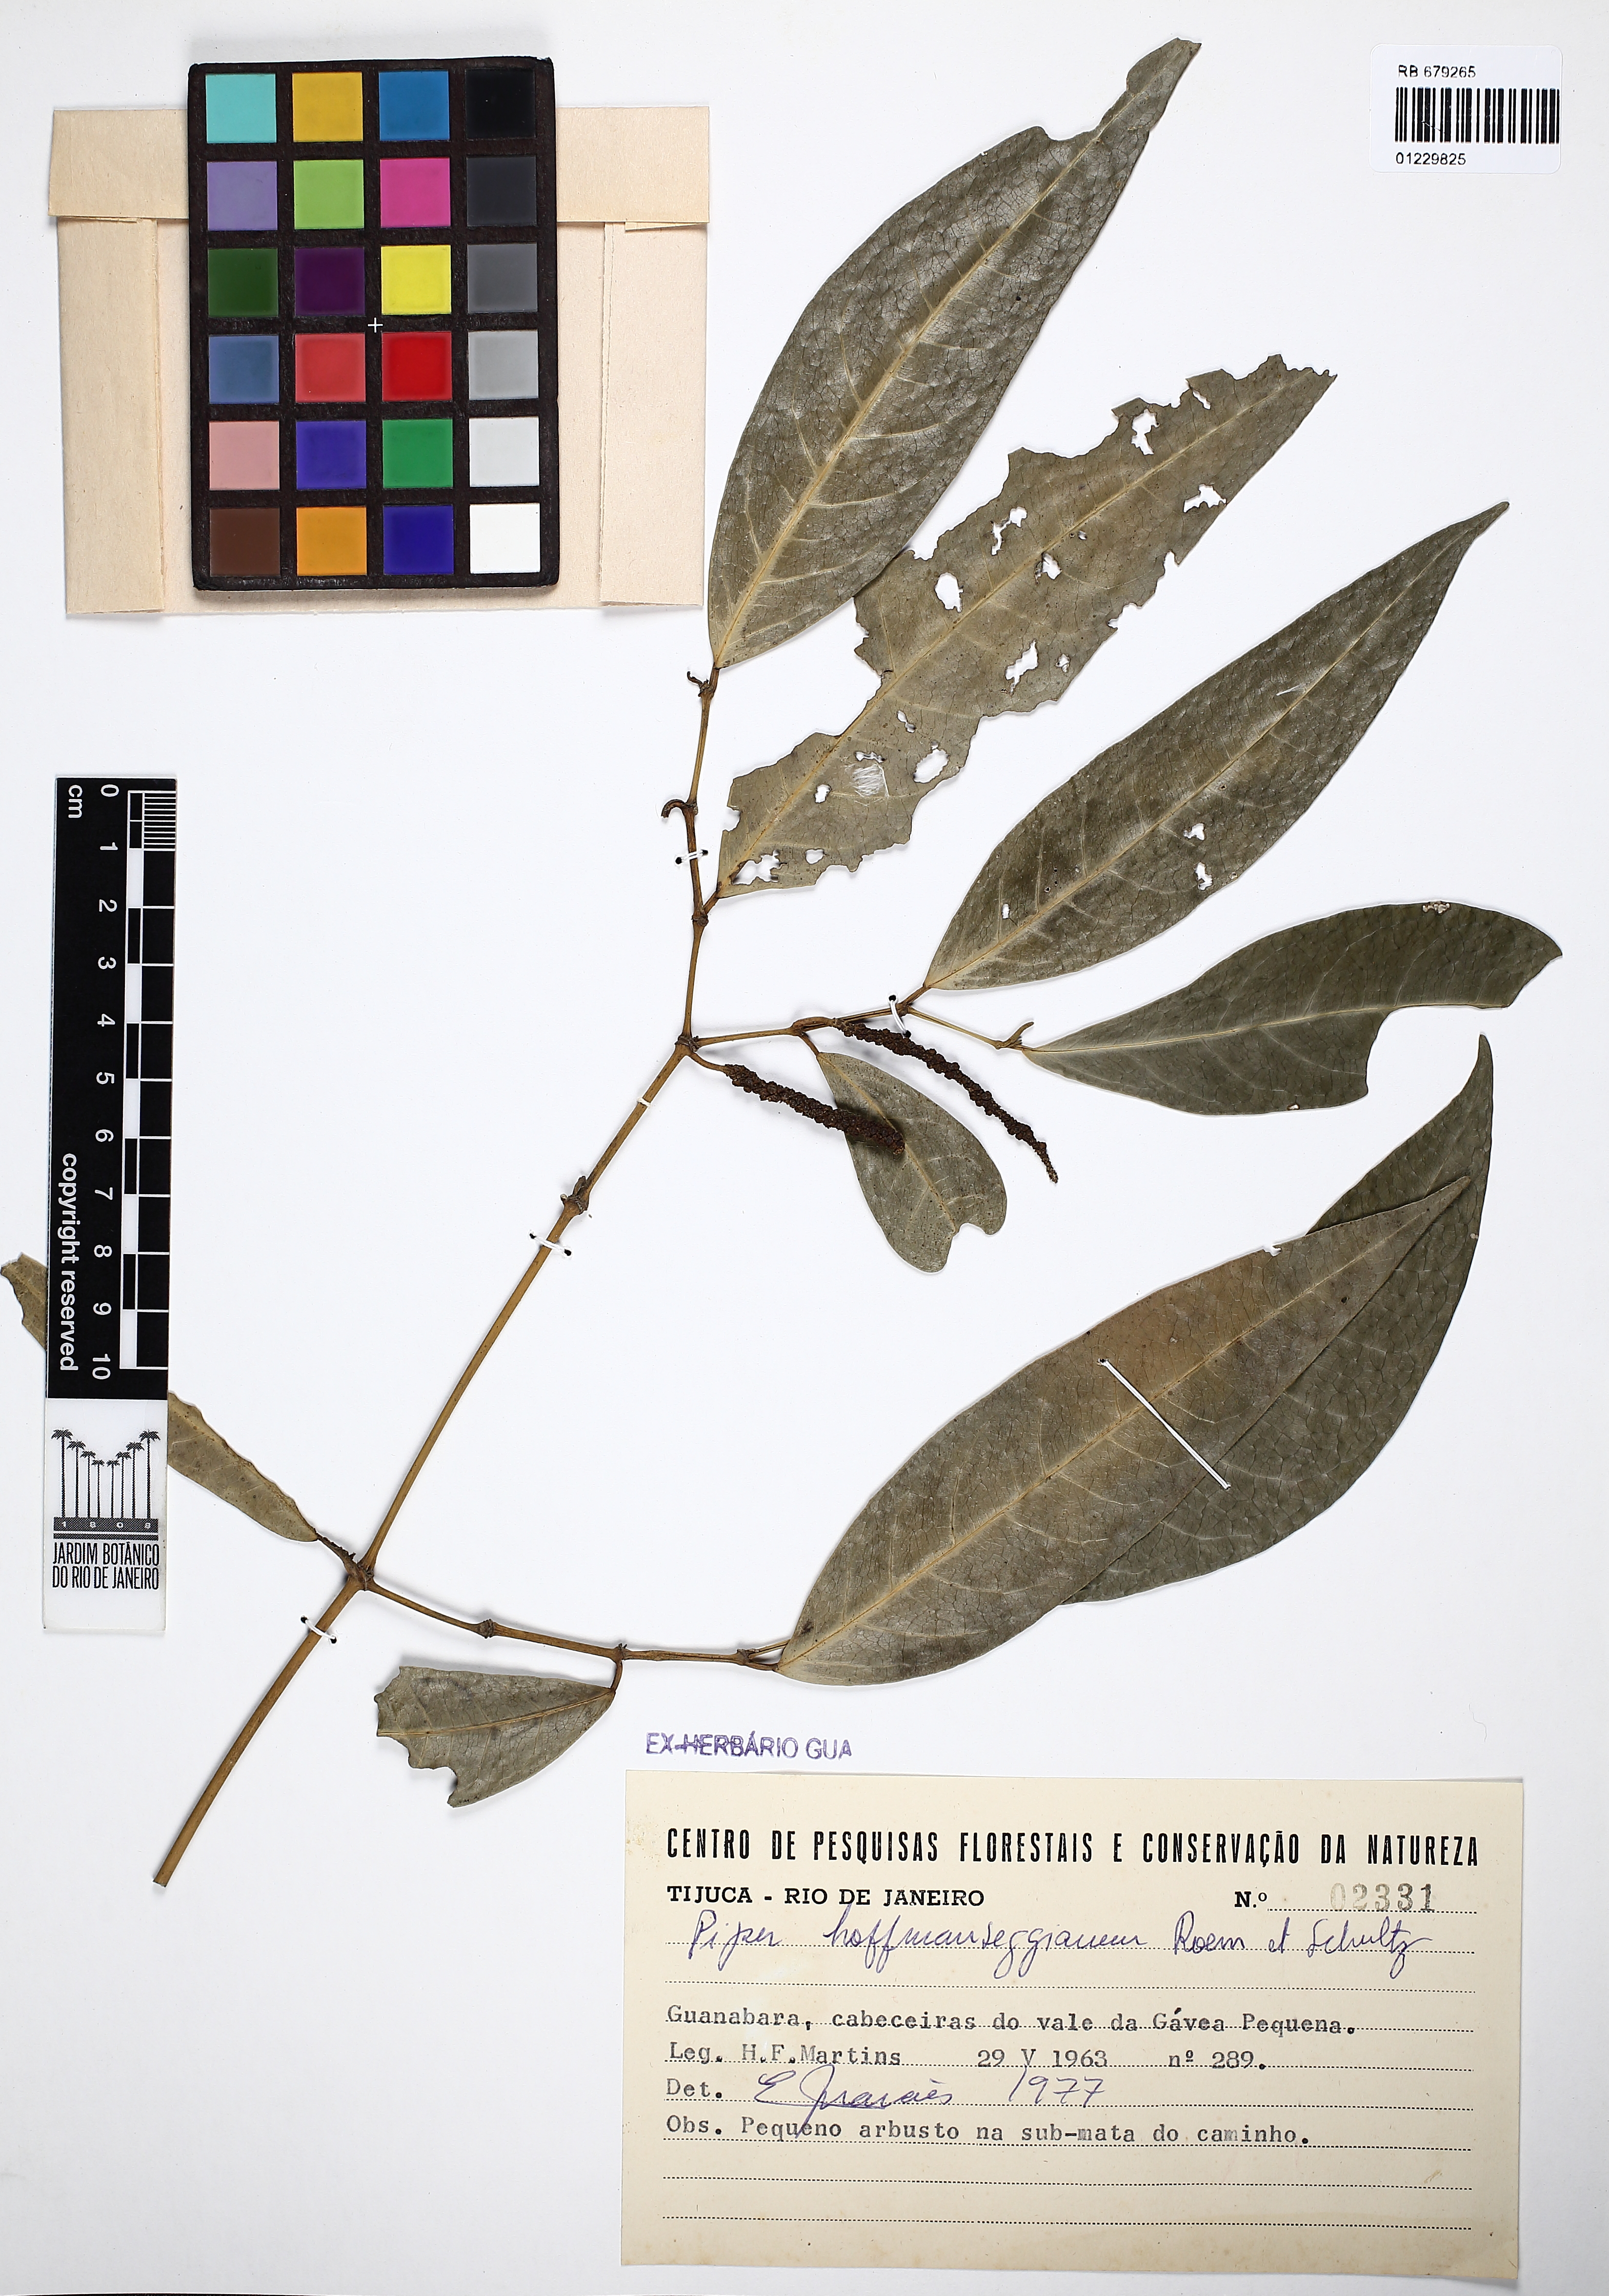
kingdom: Plantae
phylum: Tracheophyta
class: Magnoliopsida
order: Piperales
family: Piperaceae
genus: Piper
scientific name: Piper hoffmannseggianum
